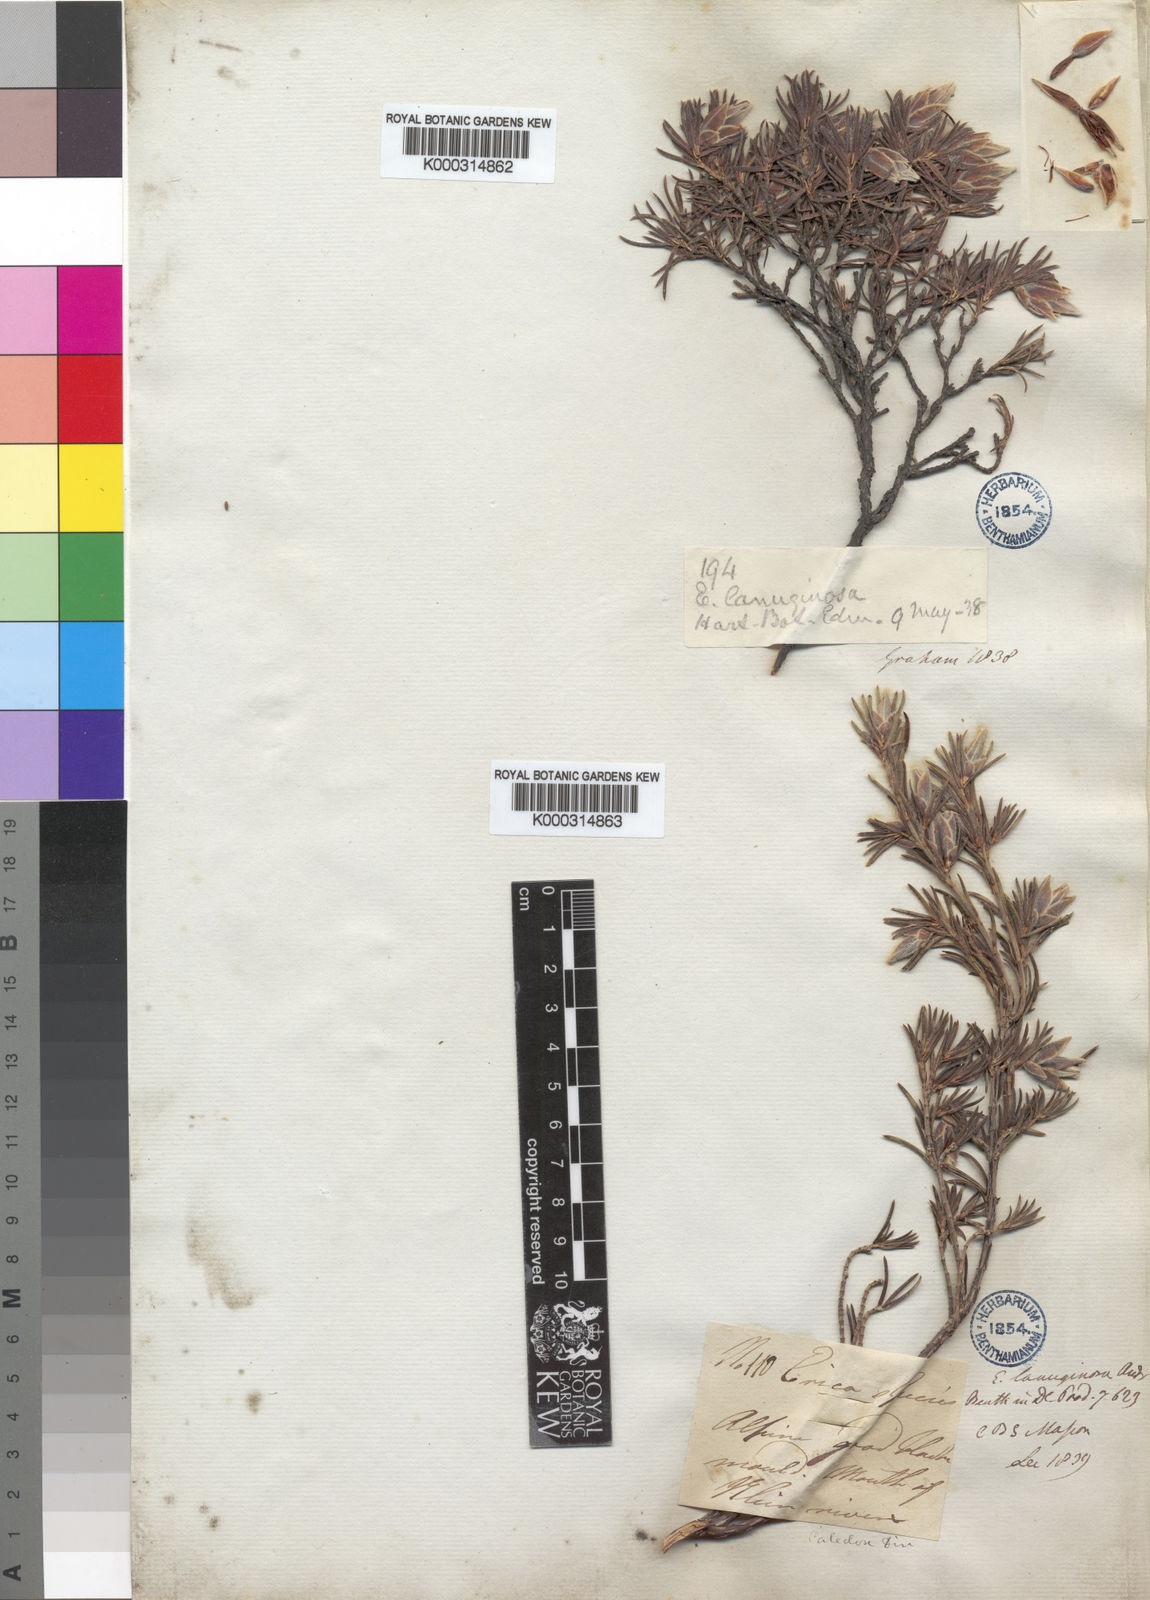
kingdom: Plantae
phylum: Tracheophyta
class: Magnoliopsida
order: Ericales
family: Ericaceae
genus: Erica
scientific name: Erica lanuginosa
